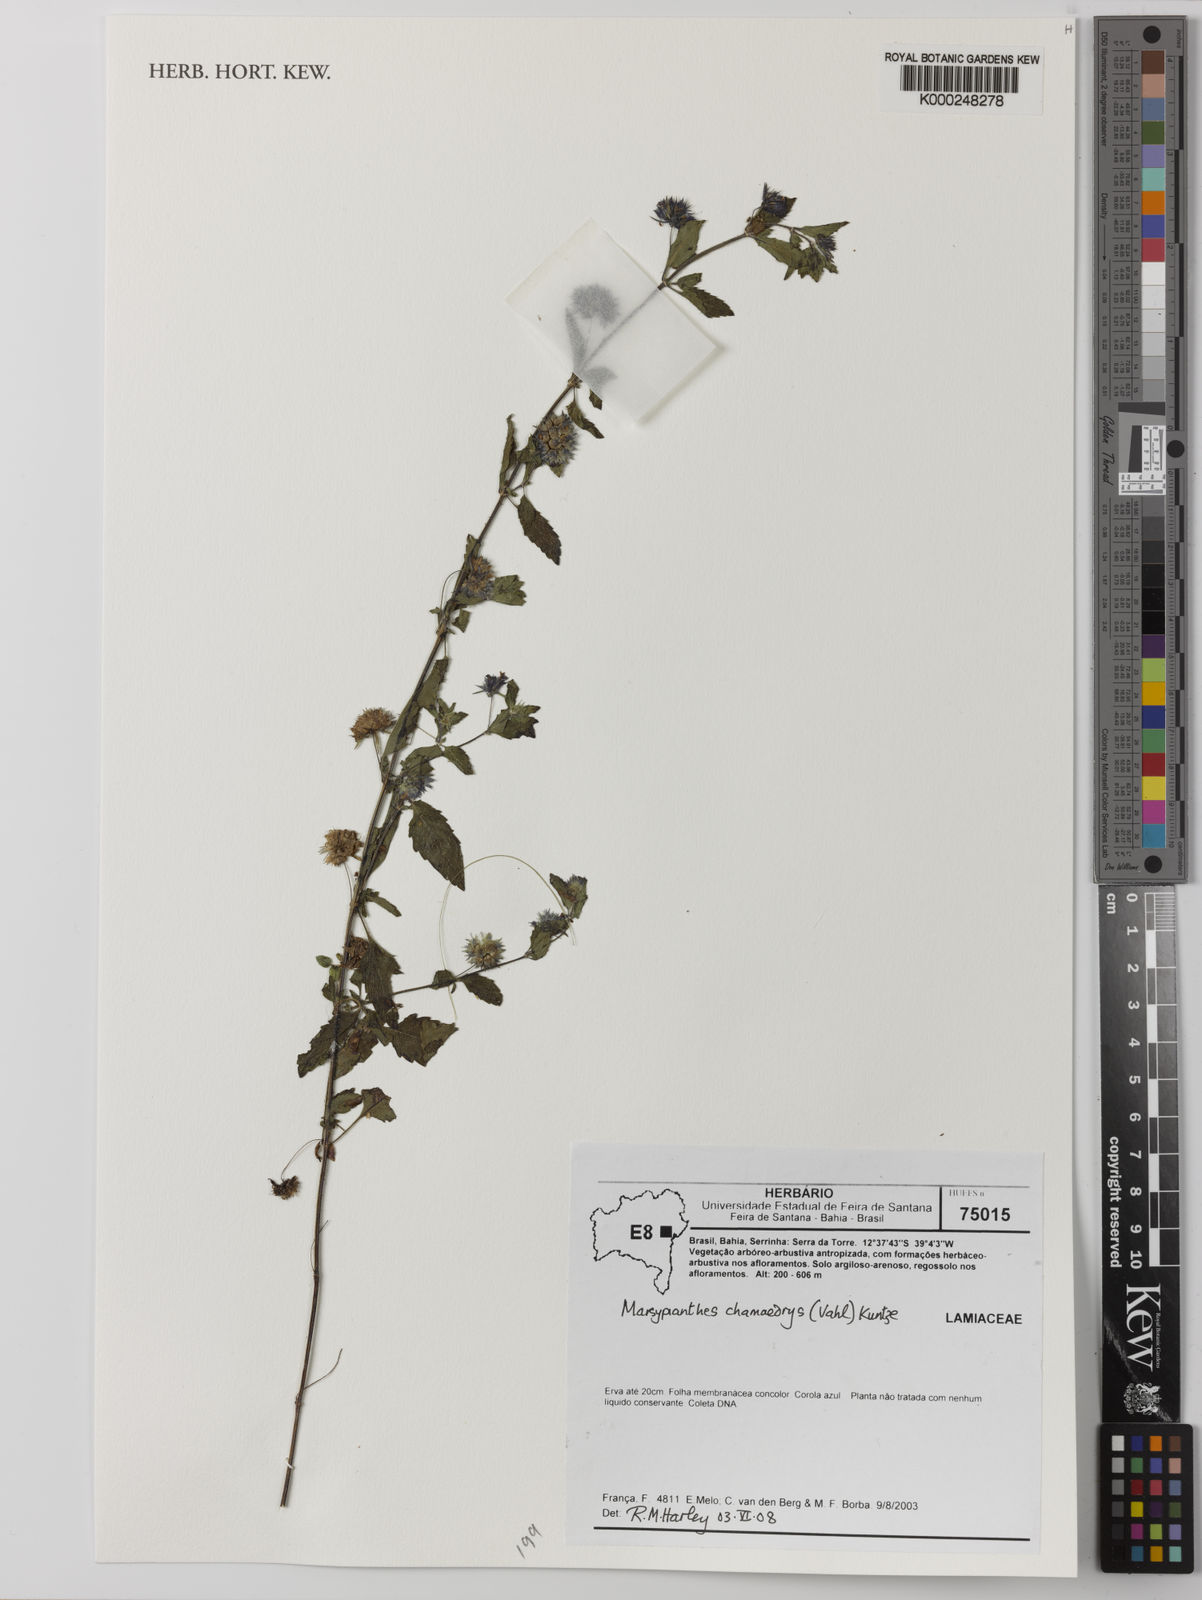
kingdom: Plantae
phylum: Tracheophyta
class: Magnoliopsida
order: Lamiales
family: Lamiaceae
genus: Marsypianthes
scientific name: Marsypianthes chamaedrys
